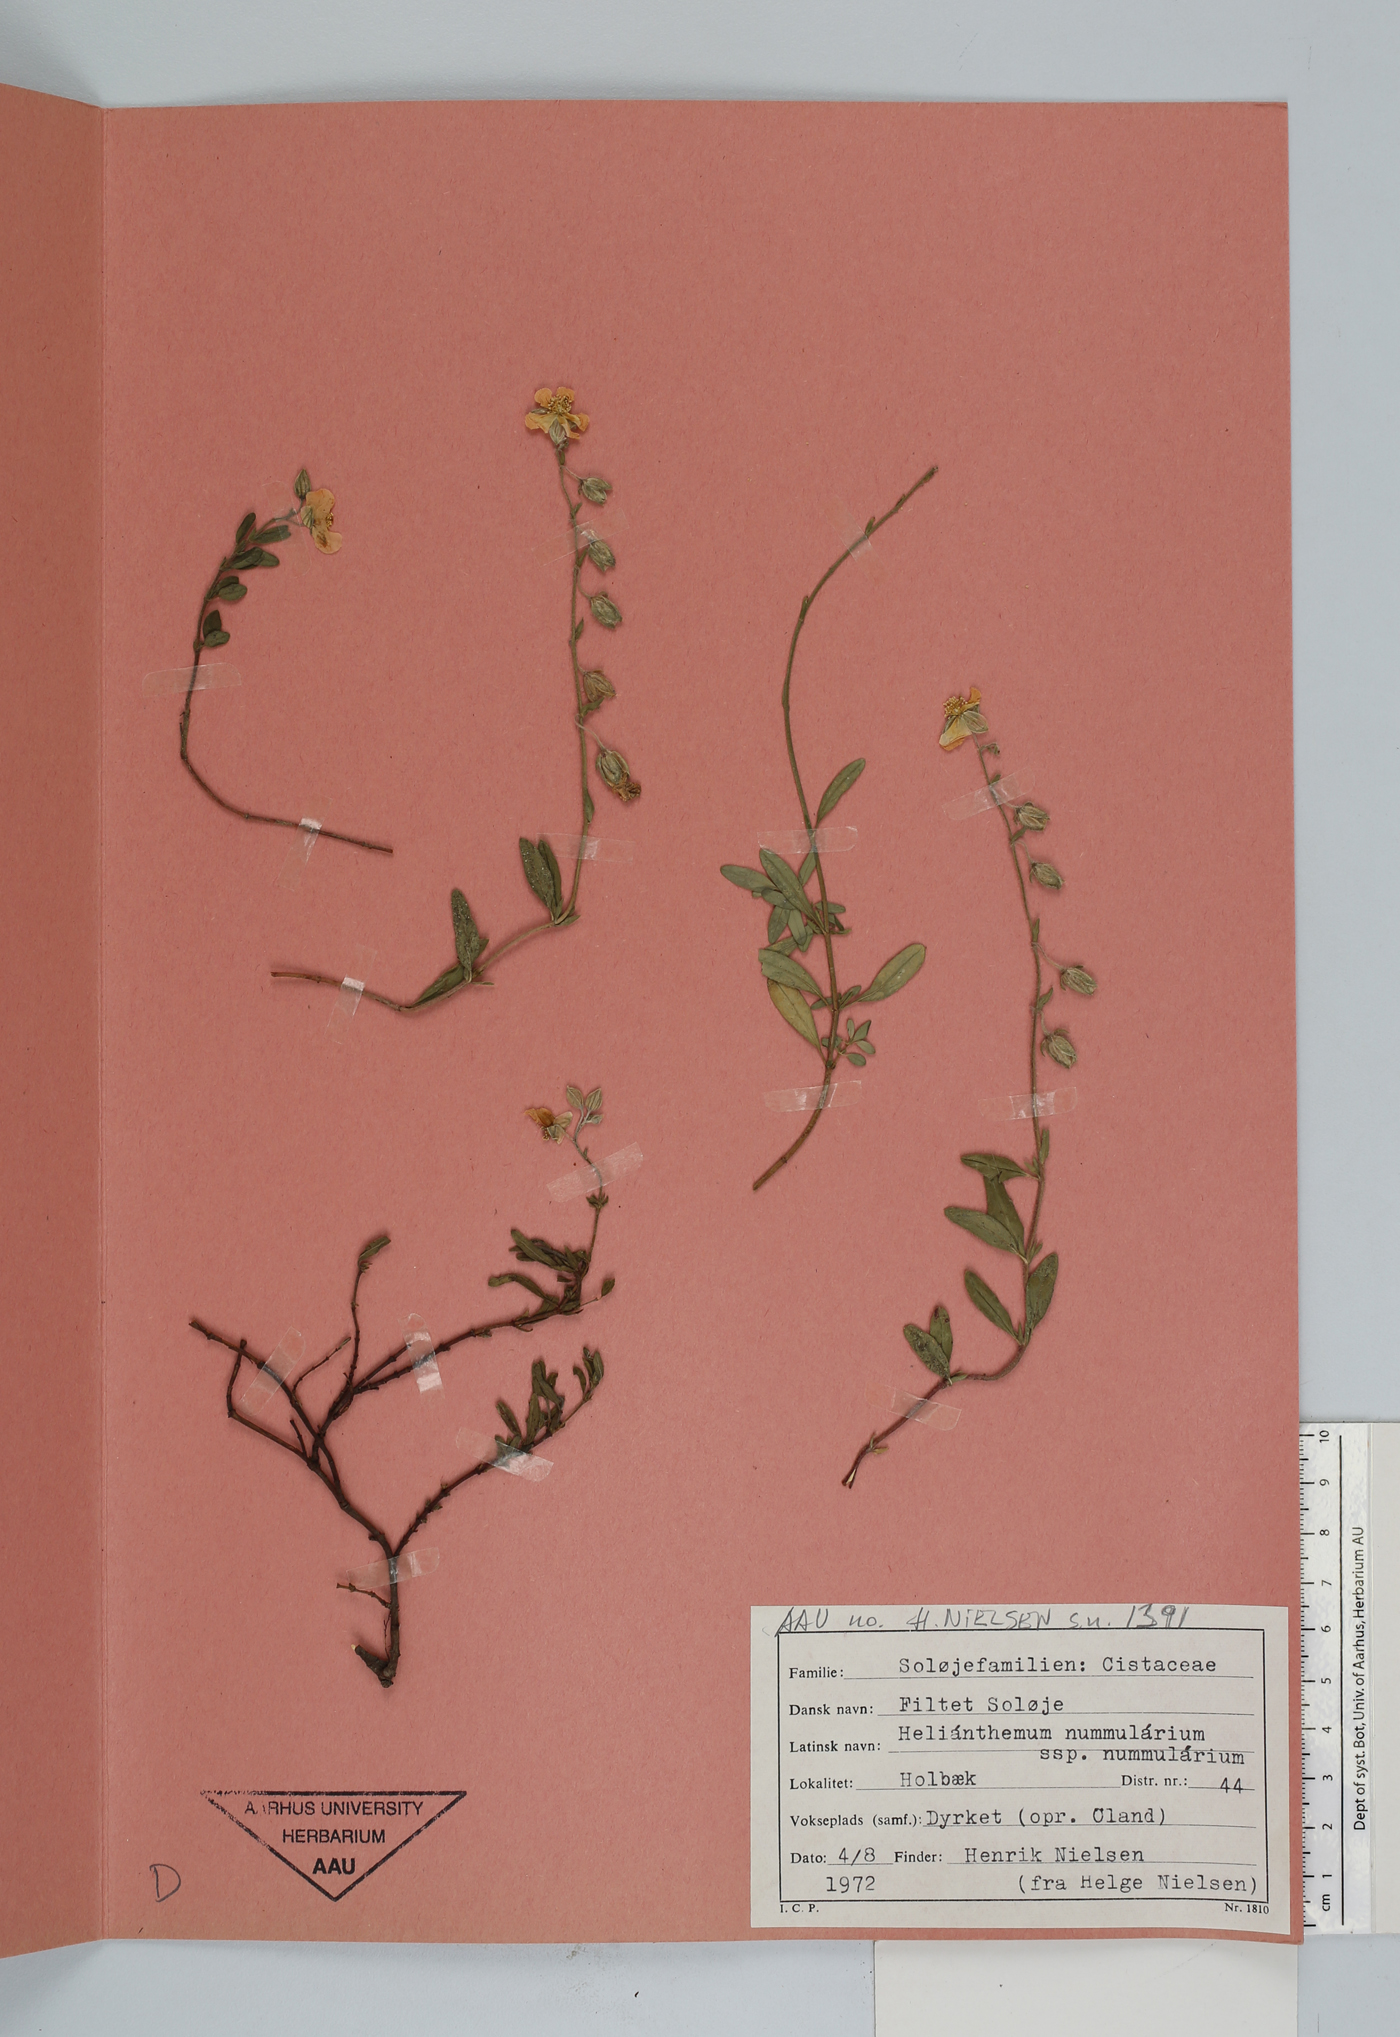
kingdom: Plantae
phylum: Tracheophyta
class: Magnoliopsida
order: Malvales
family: Cistaceae
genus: Helianthemum
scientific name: Helianthemum cinereum
